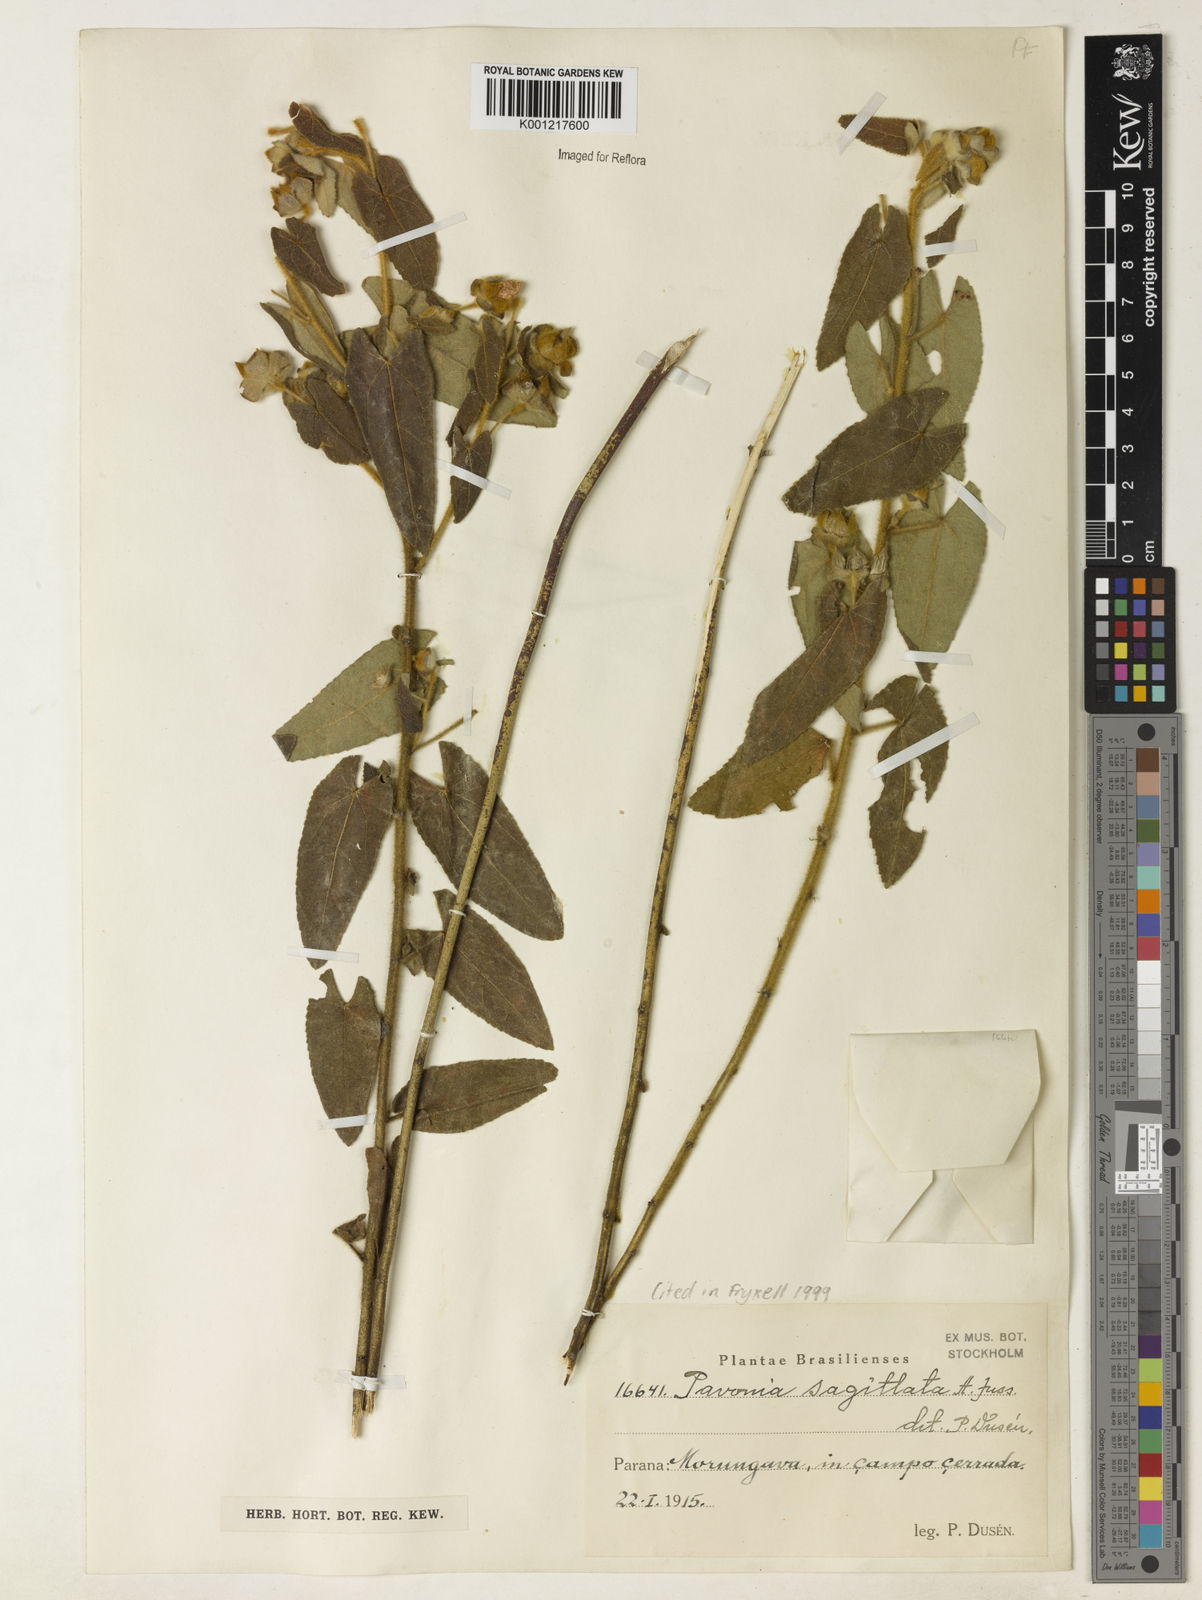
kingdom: Plantae
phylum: Tracheophyta
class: Magnoliopsida
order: Malvales
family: Malvaceae
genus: Pavonia
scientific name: Pavonia
